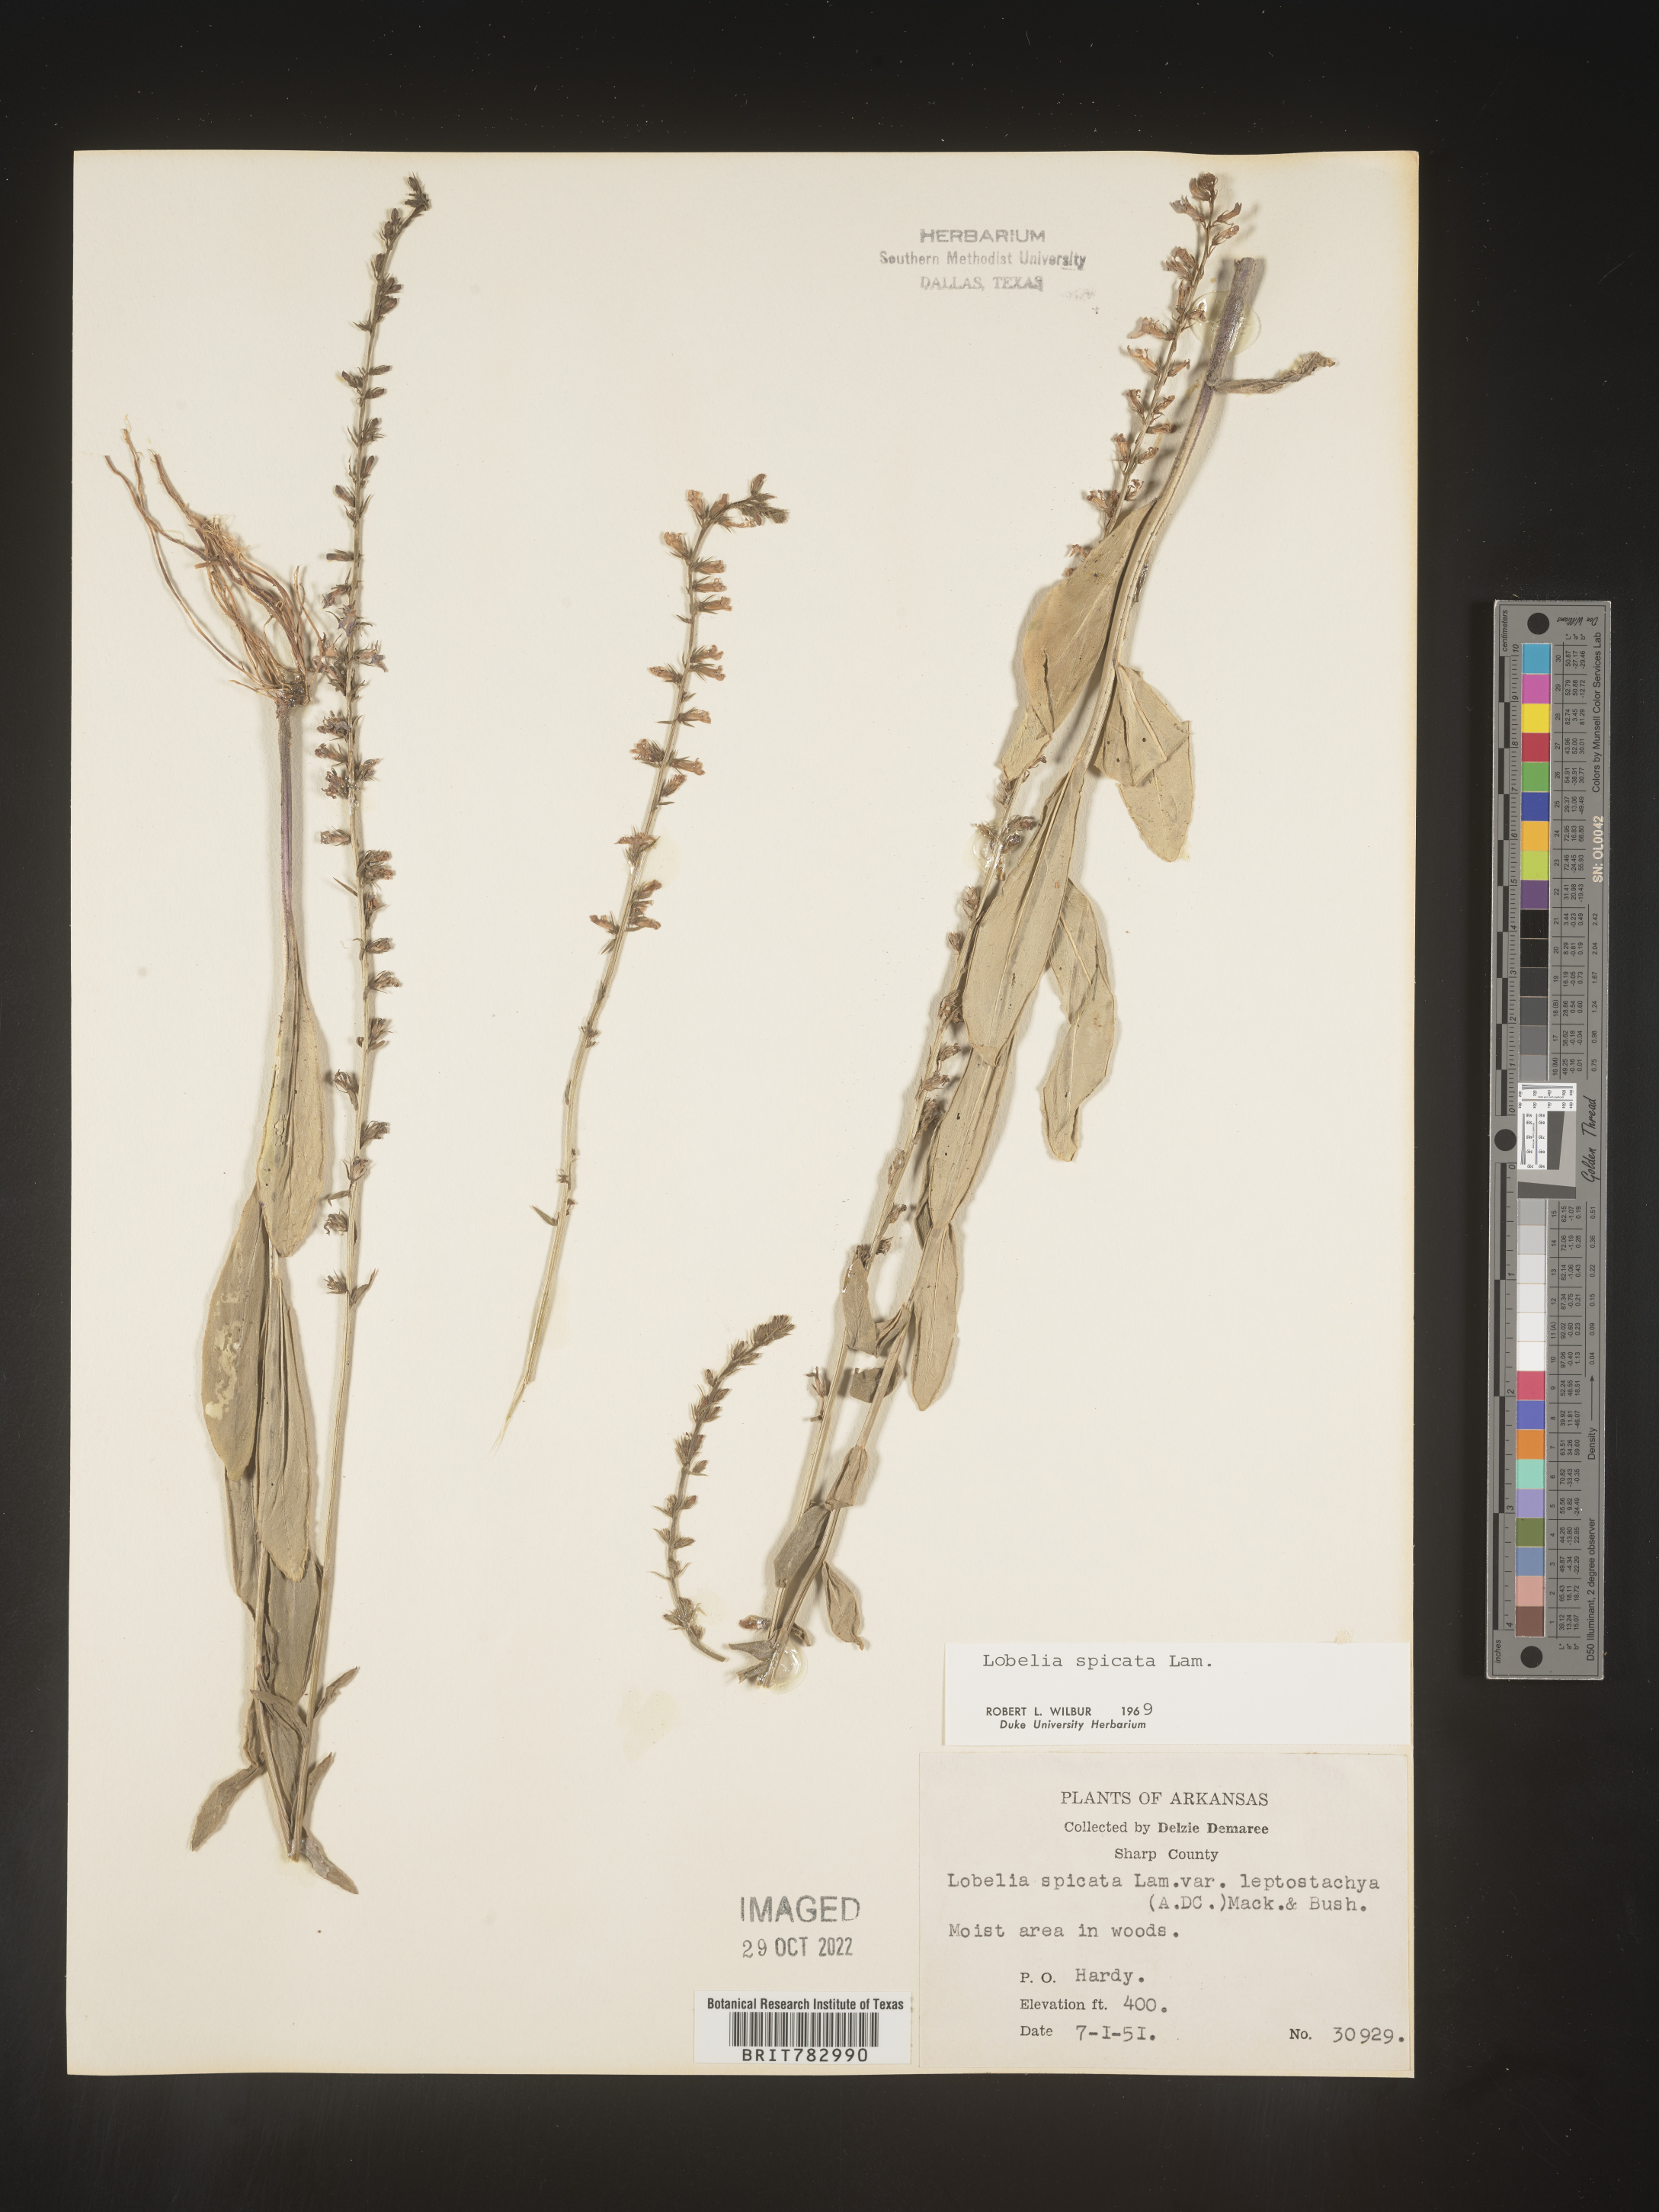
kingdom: Plantae
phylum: Tracheophyta
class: Magnoliopsida
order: Asterales
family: Campanulaceae
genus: Lobelia
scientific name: Lobelia spicata
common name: Pale-spike lobelia
